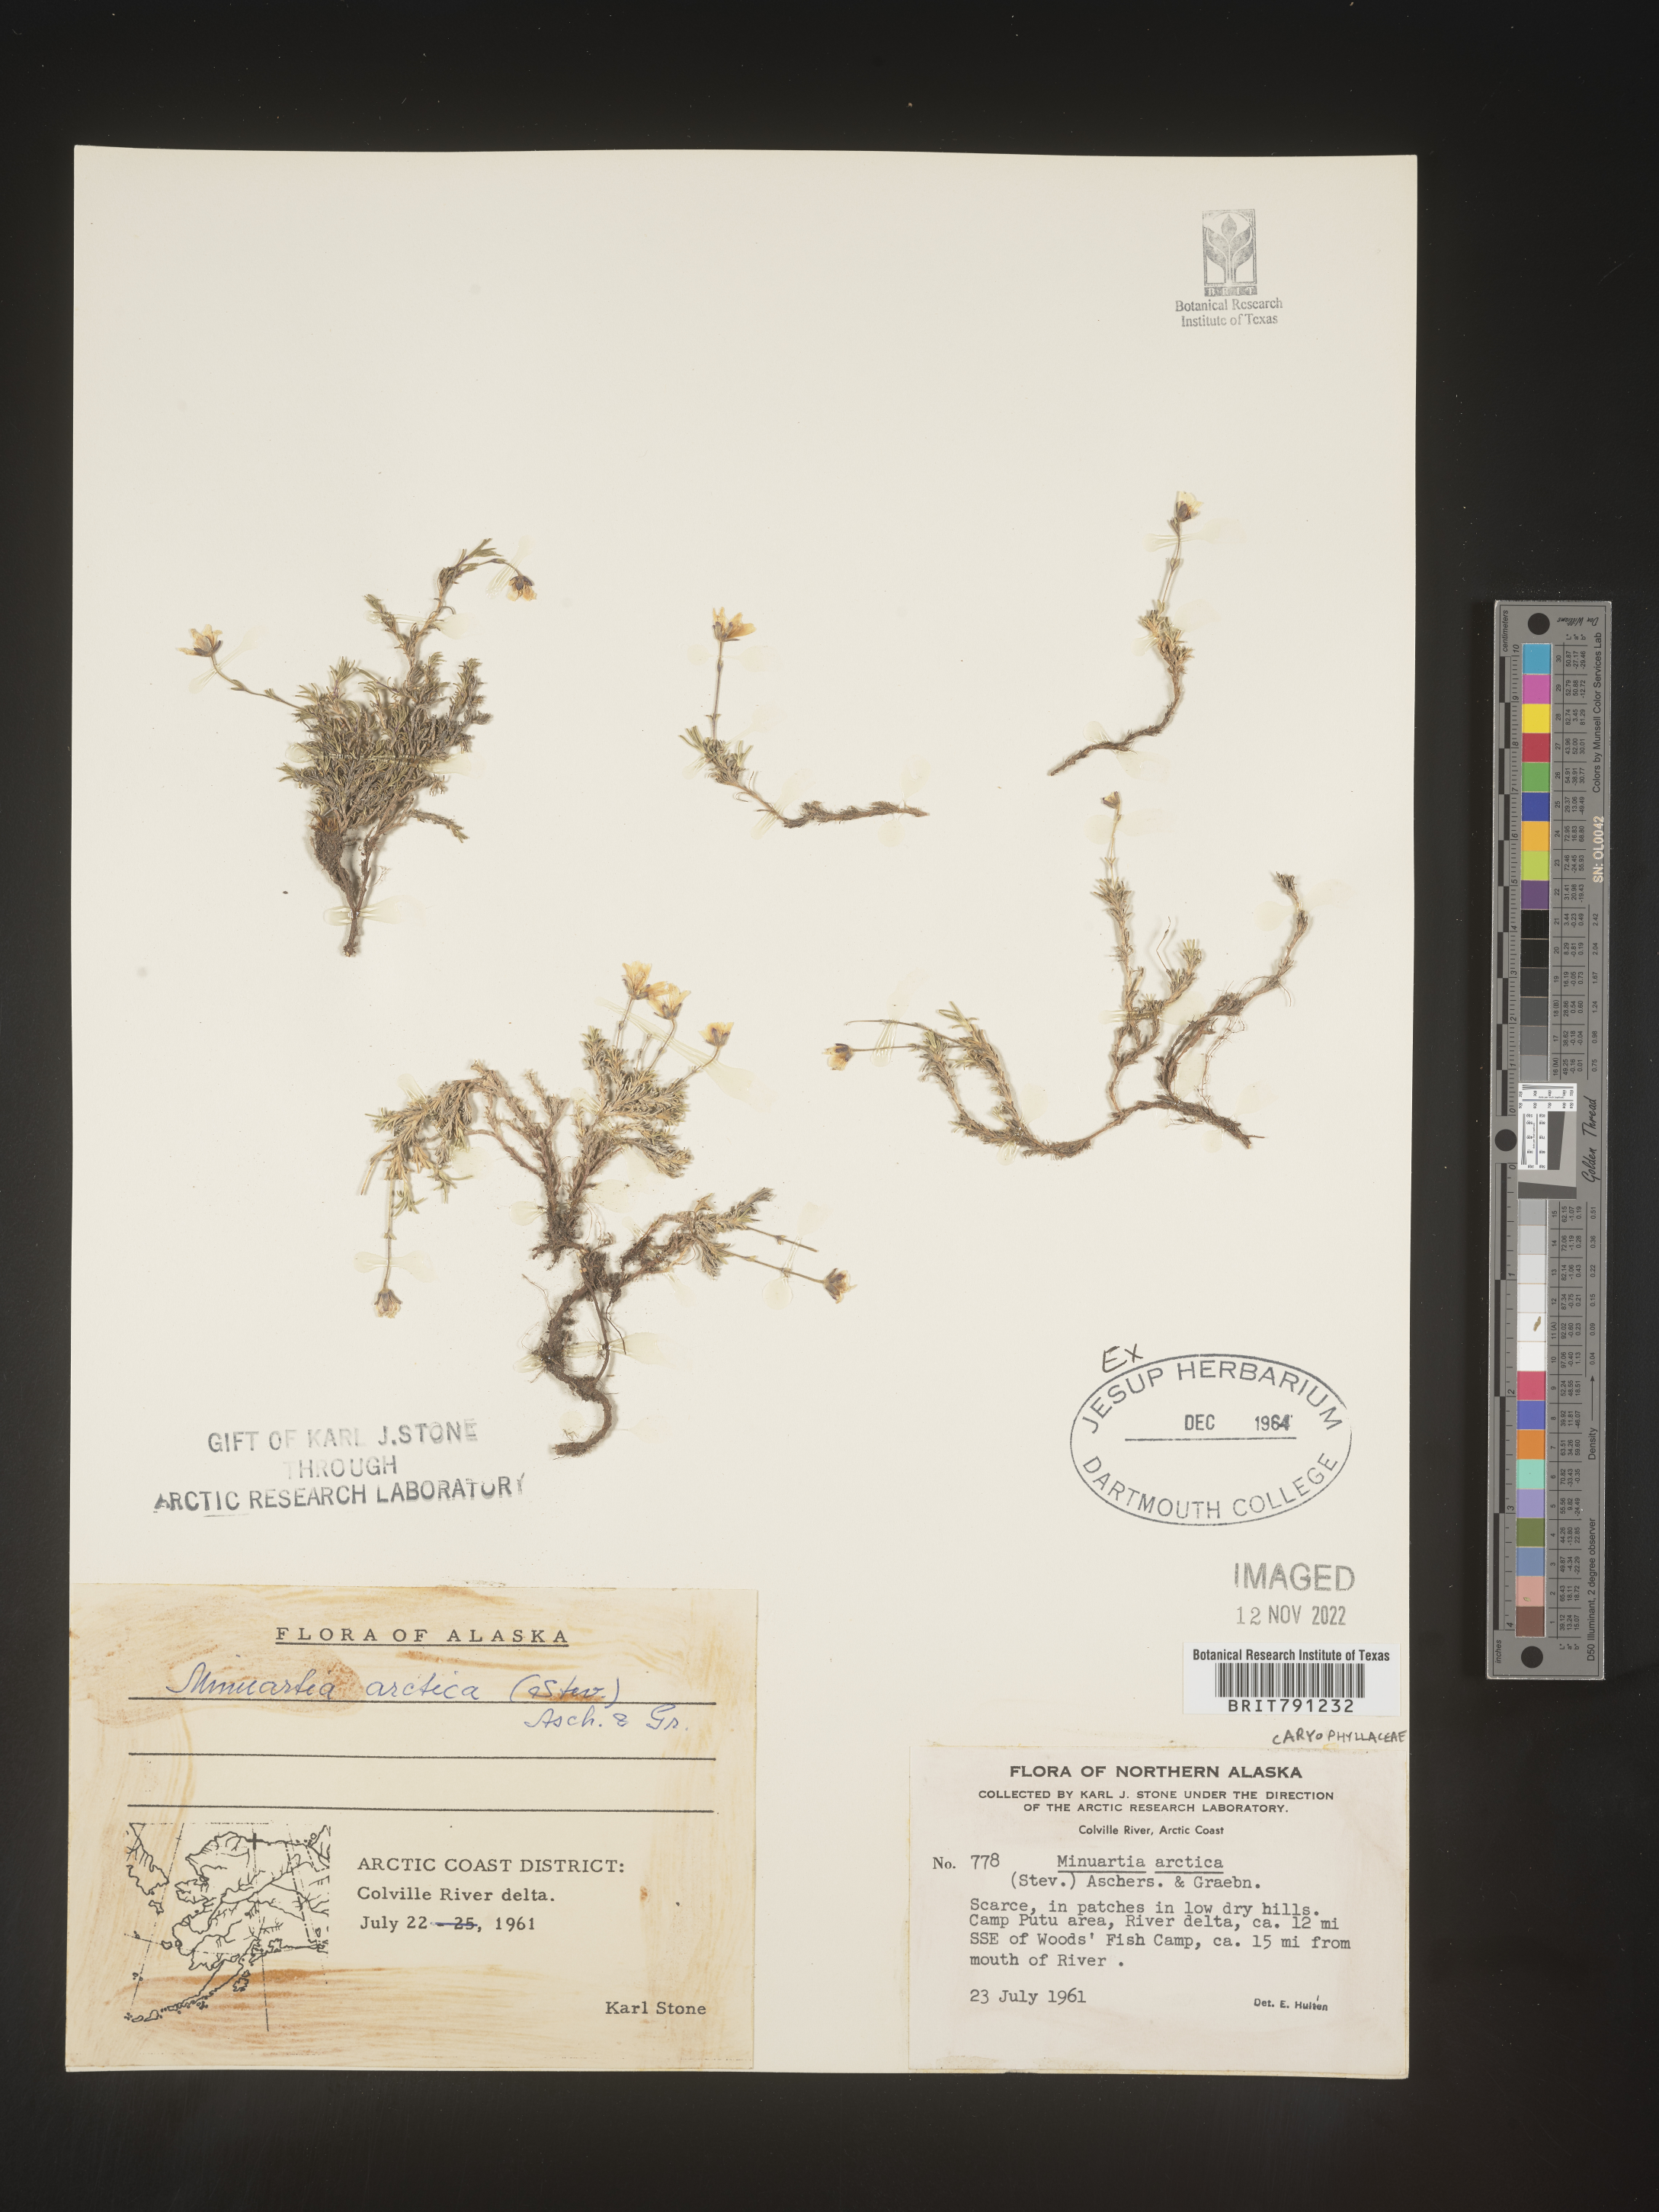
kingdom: Plantae
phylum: Tracheophyta
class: Magnoliopsida
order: Caryophyllales
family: Caryophyllaceae
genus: Minuartia
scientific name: Minuartia
